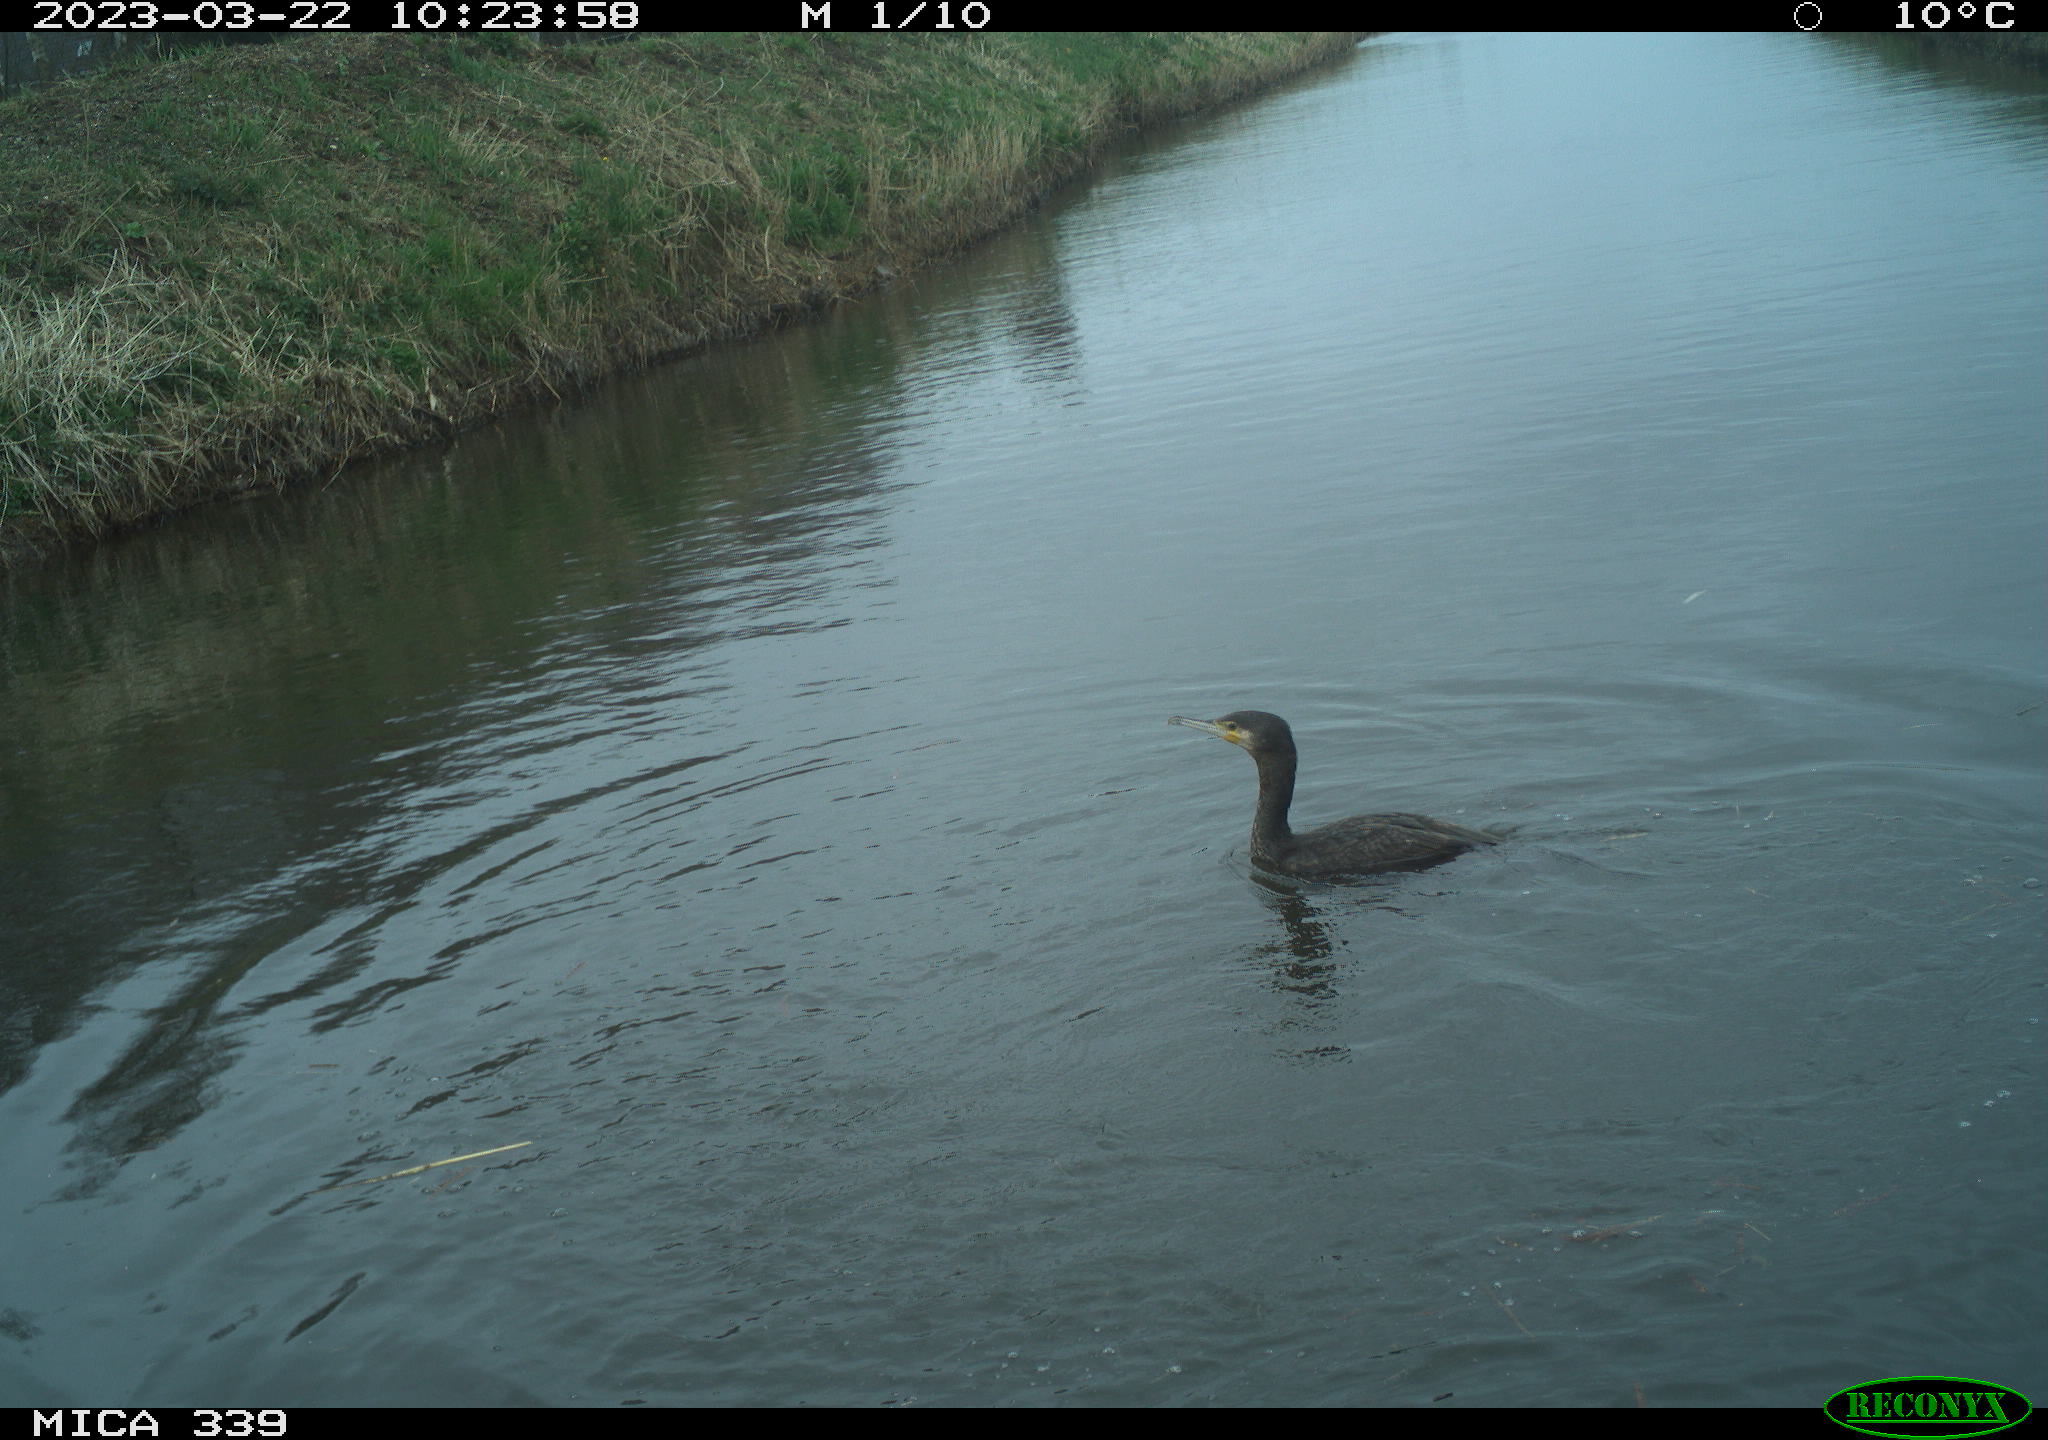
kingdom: Animalia
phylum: Chordata
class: Aves
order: Anseriformes
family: Anatidae
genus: Anas
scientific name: Anas
